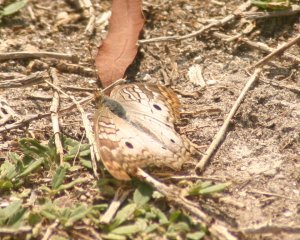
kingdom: Animalia
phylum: Arthropoda
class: Insecta
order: Lepidoptera
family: Nymphalidae
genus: Anartia
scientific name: Anartia jatrophae
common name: White Peacock
